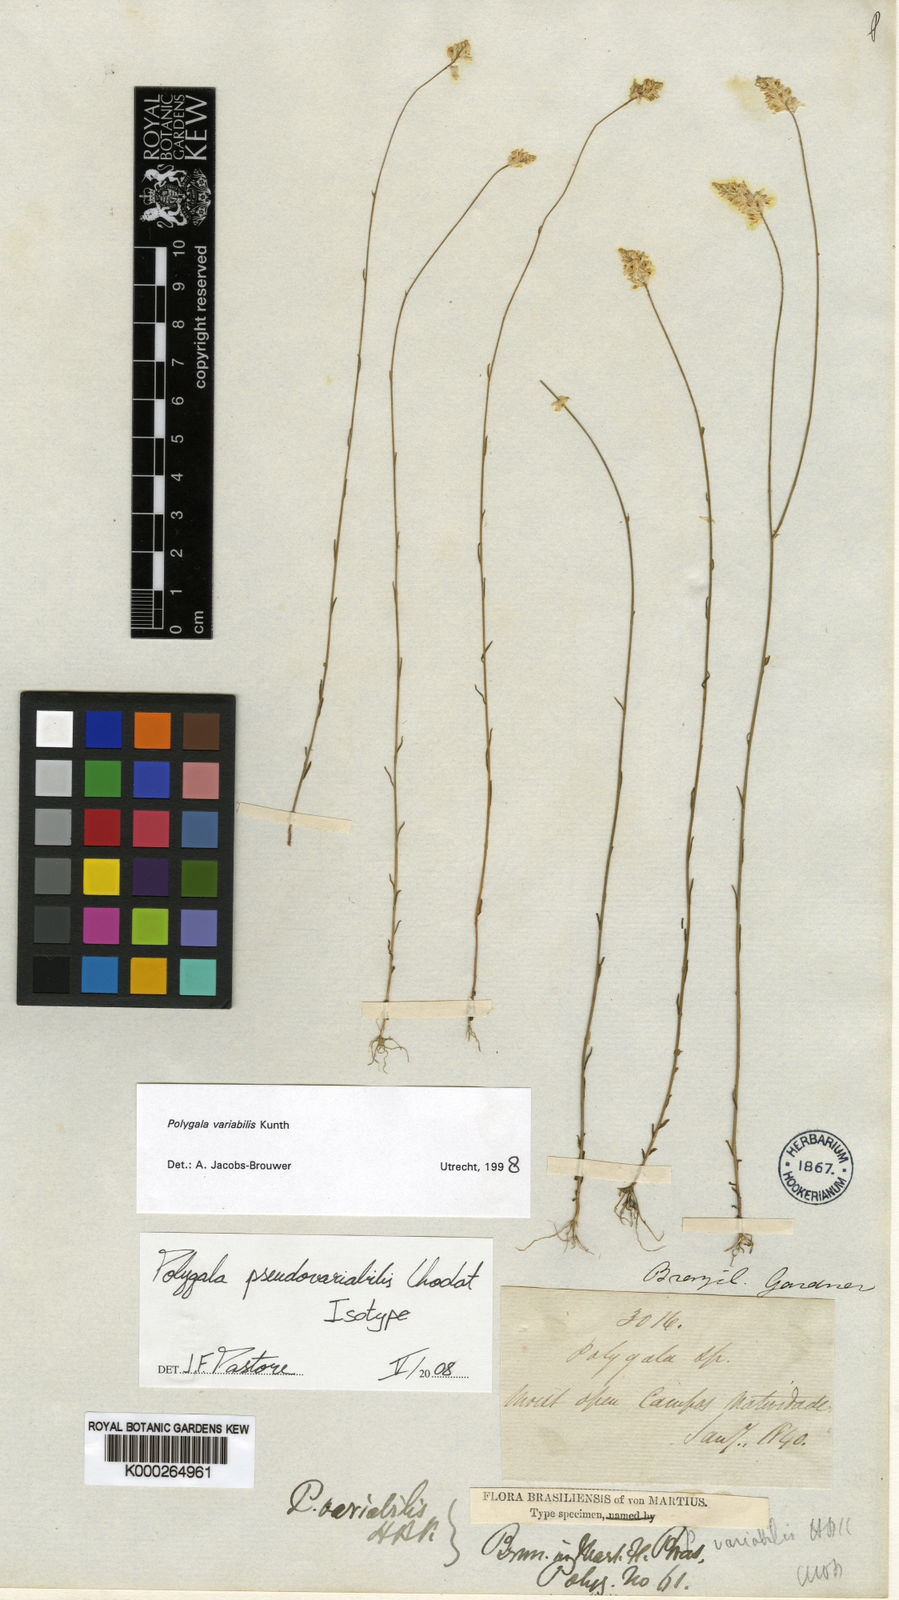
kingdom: Plantae
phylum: Tracheophyta
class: Magnoliopsida
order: Fabales
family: Polygalaceae
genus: Polygala
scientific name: Polygala pseudovariabilis
